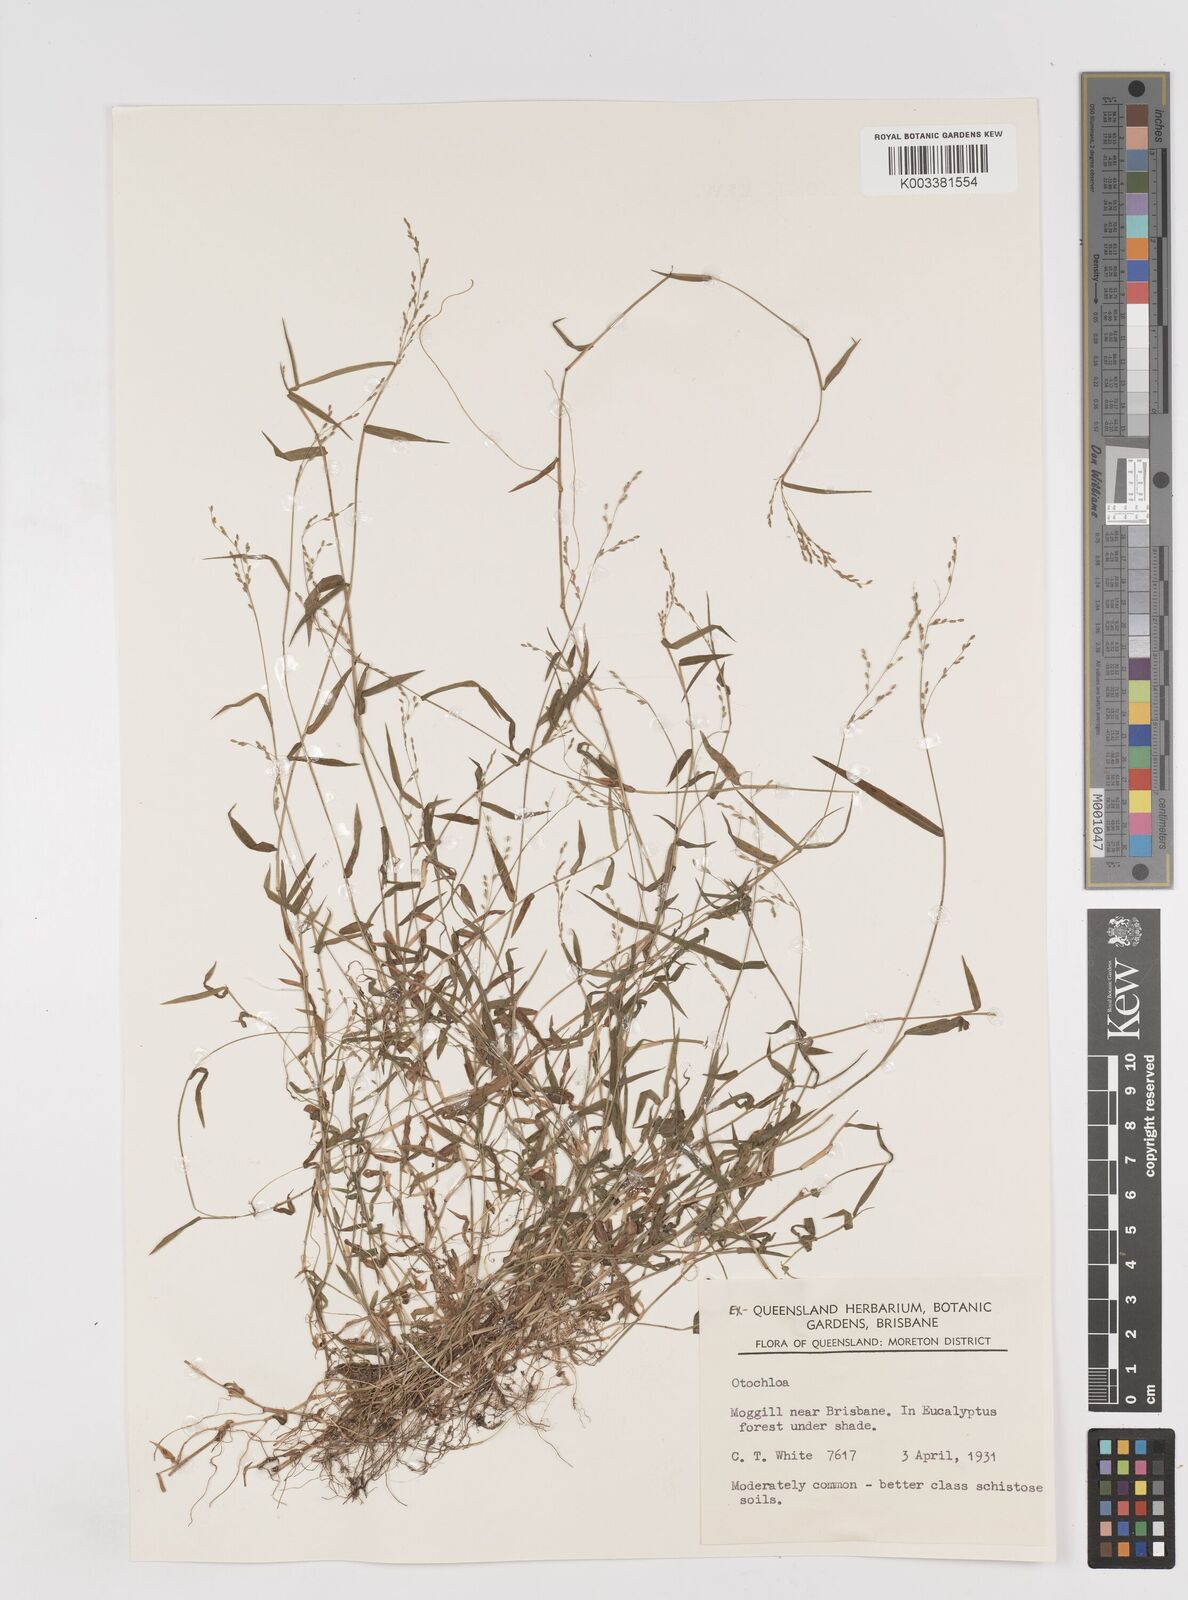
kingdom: Plantae
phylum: Tracheophyta
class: Liliopsida
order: Poales
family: Poaceae
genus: Ottochloa
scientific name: Ottochloa gracillima
